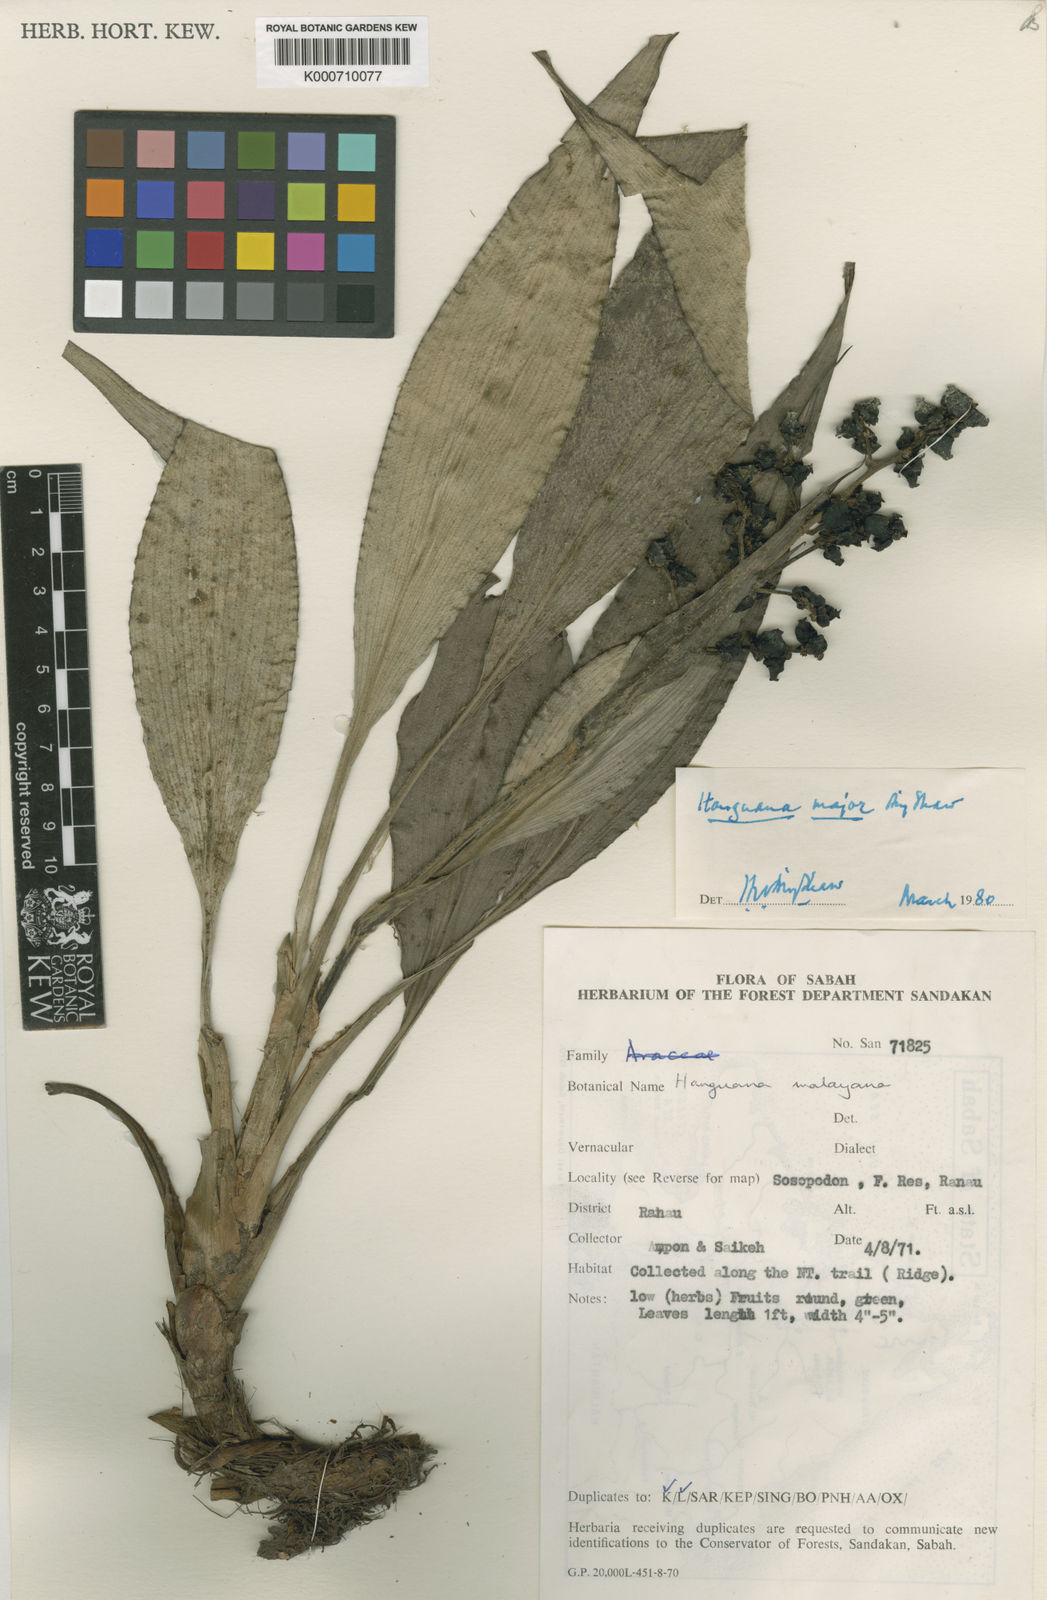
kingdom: Plantae
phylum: Tracheophyta
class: Liliopsida
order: Commelinales
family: Hanguanaceae
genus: Hanguana
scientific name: Hanguana major
